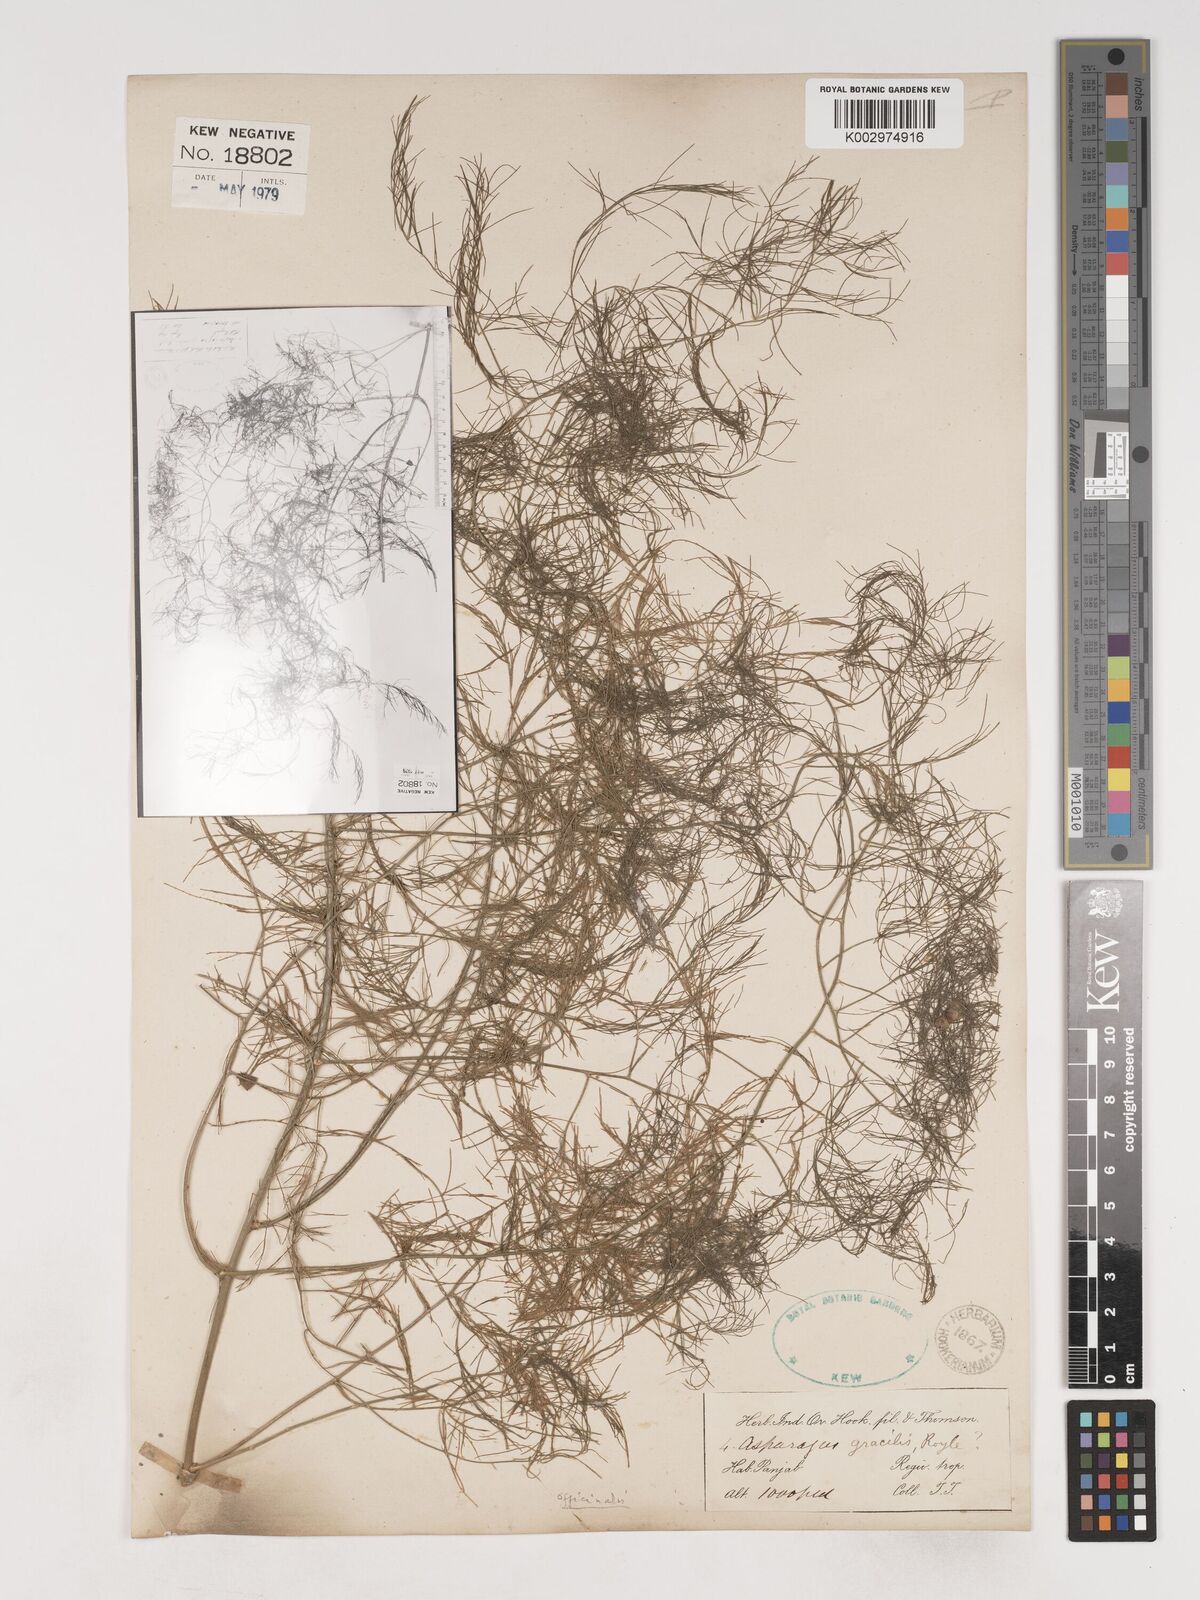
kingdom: Plantae
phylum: Tracheophyta
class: Liliopsida
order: Asparagales
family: Asparagaceae
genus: Asparagus
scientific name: Asparagus officinalis
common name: Garden asparagus
